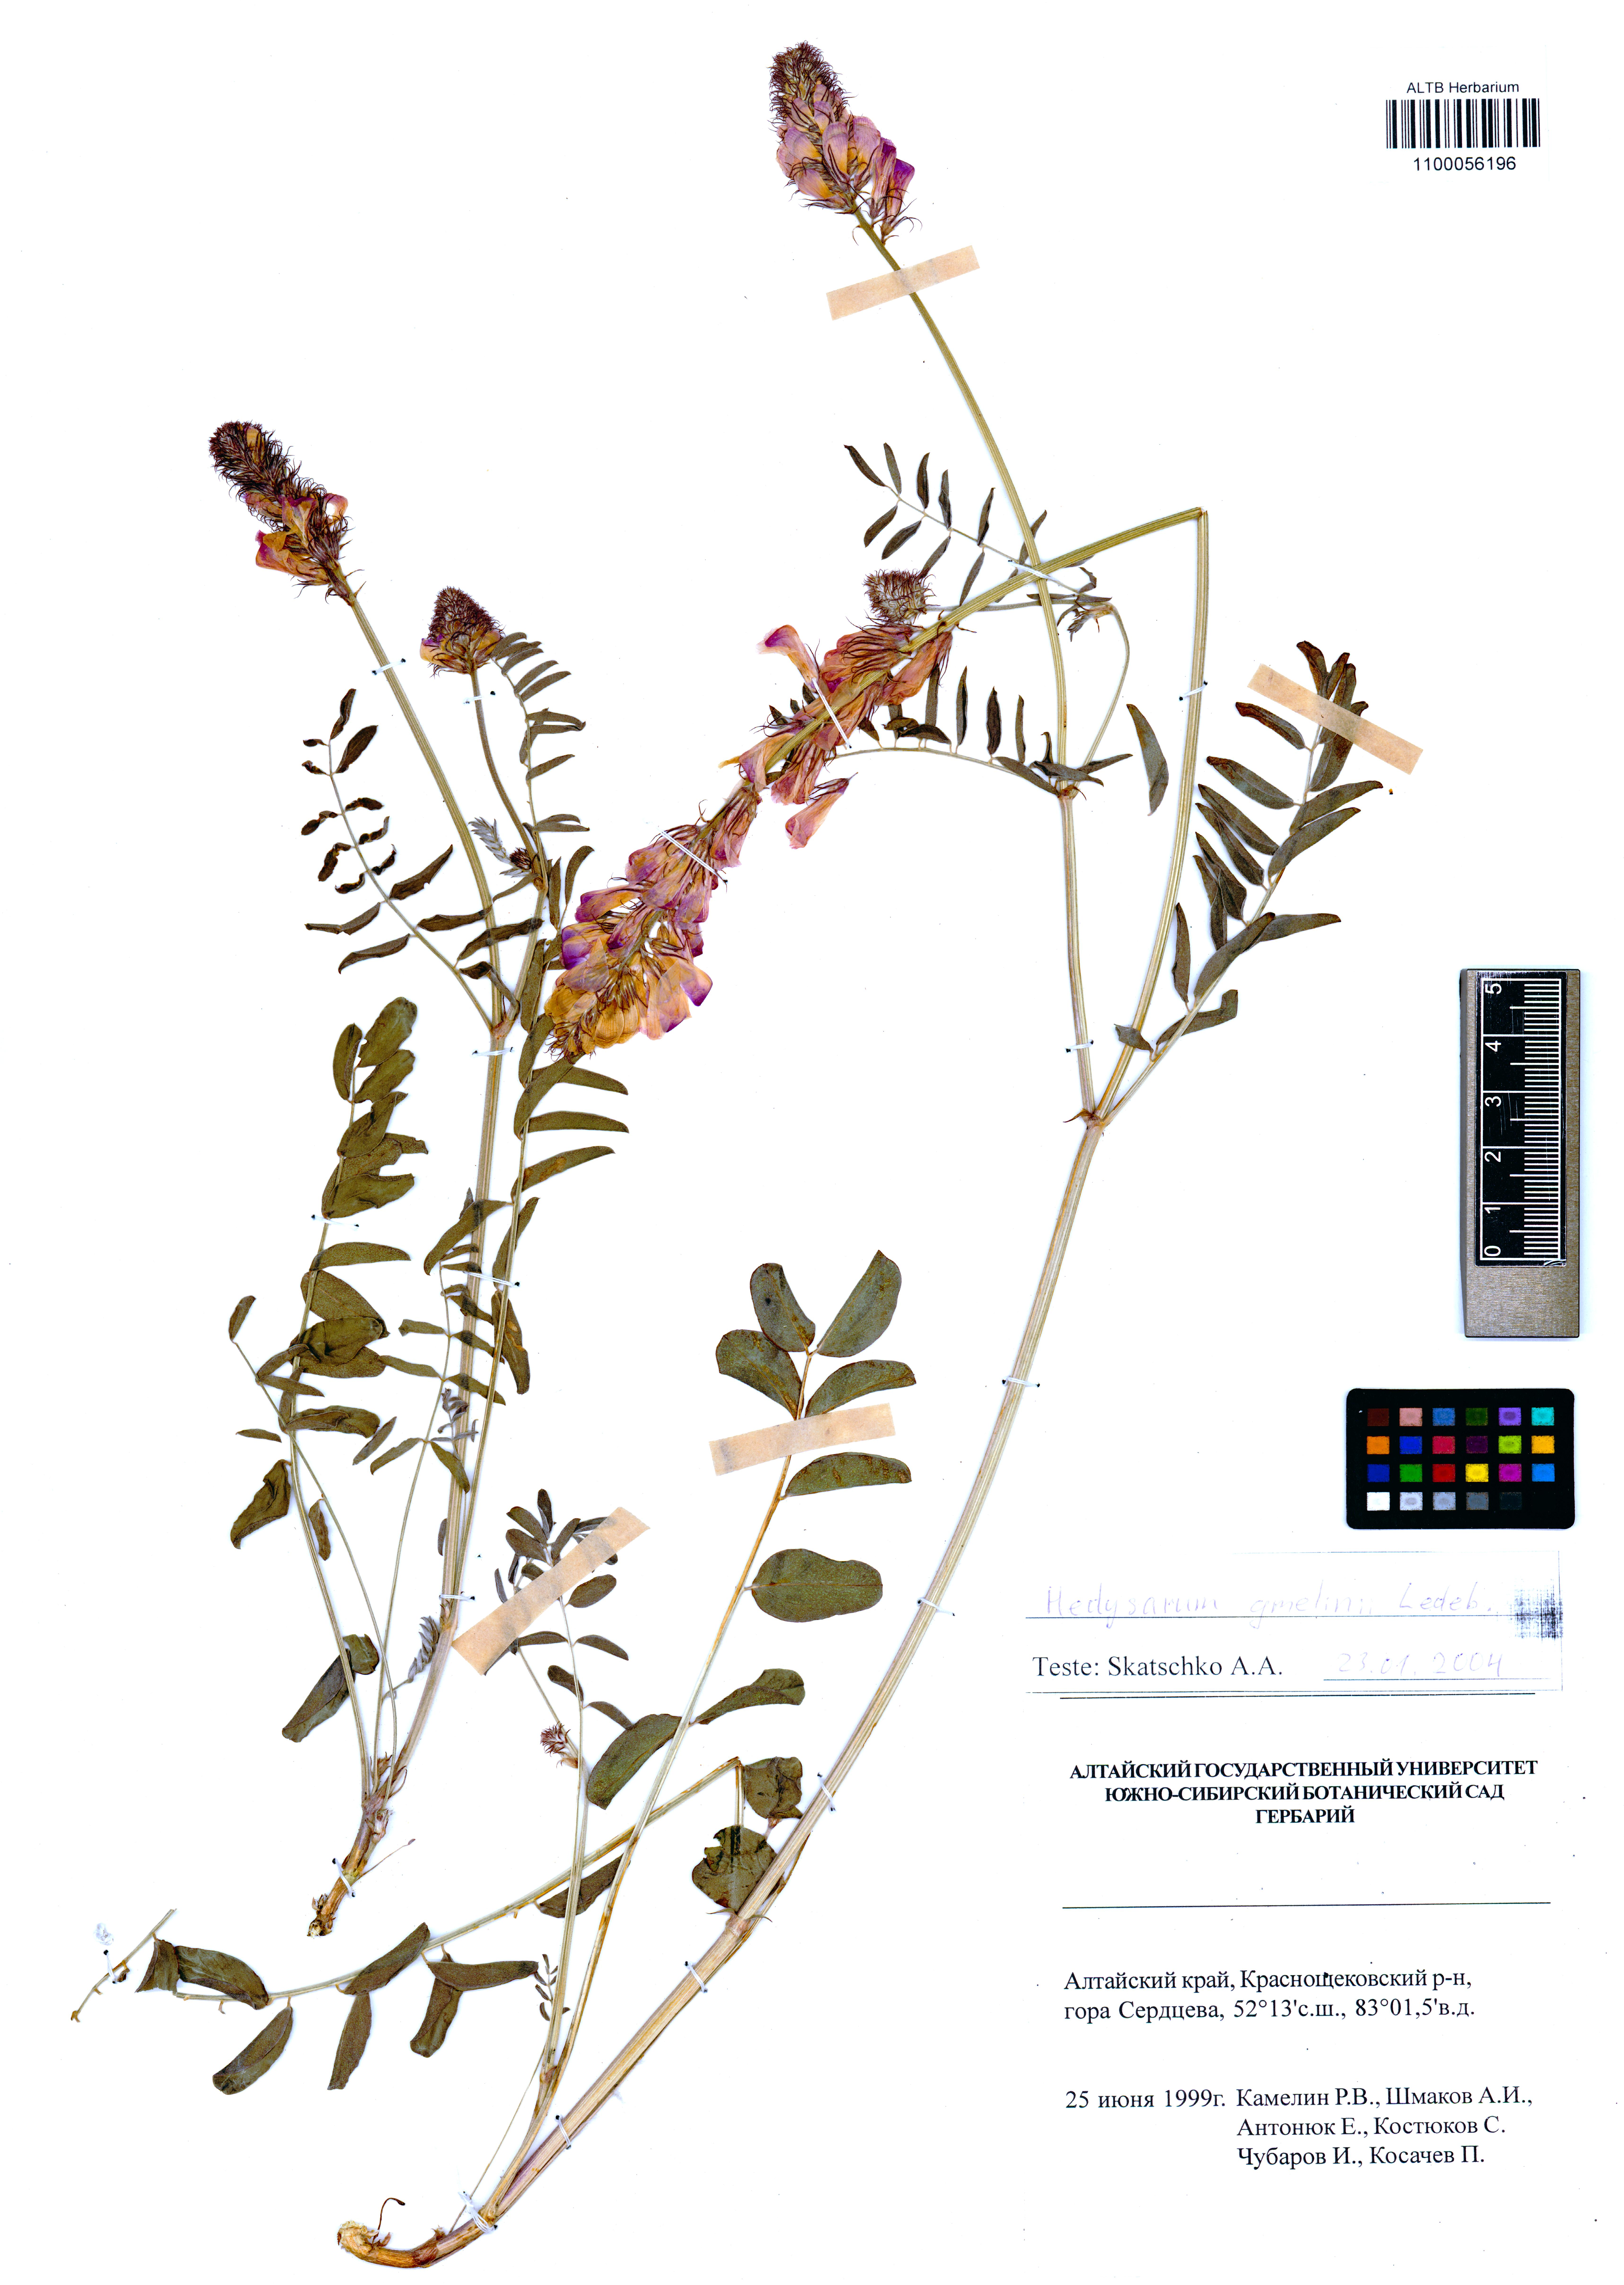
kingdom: Plantae
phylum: Tracheophyta
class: Magnoliopsida
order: Fabales
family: Fabaceae
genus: Hedysarum
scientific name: Hedysarum gmelinii
